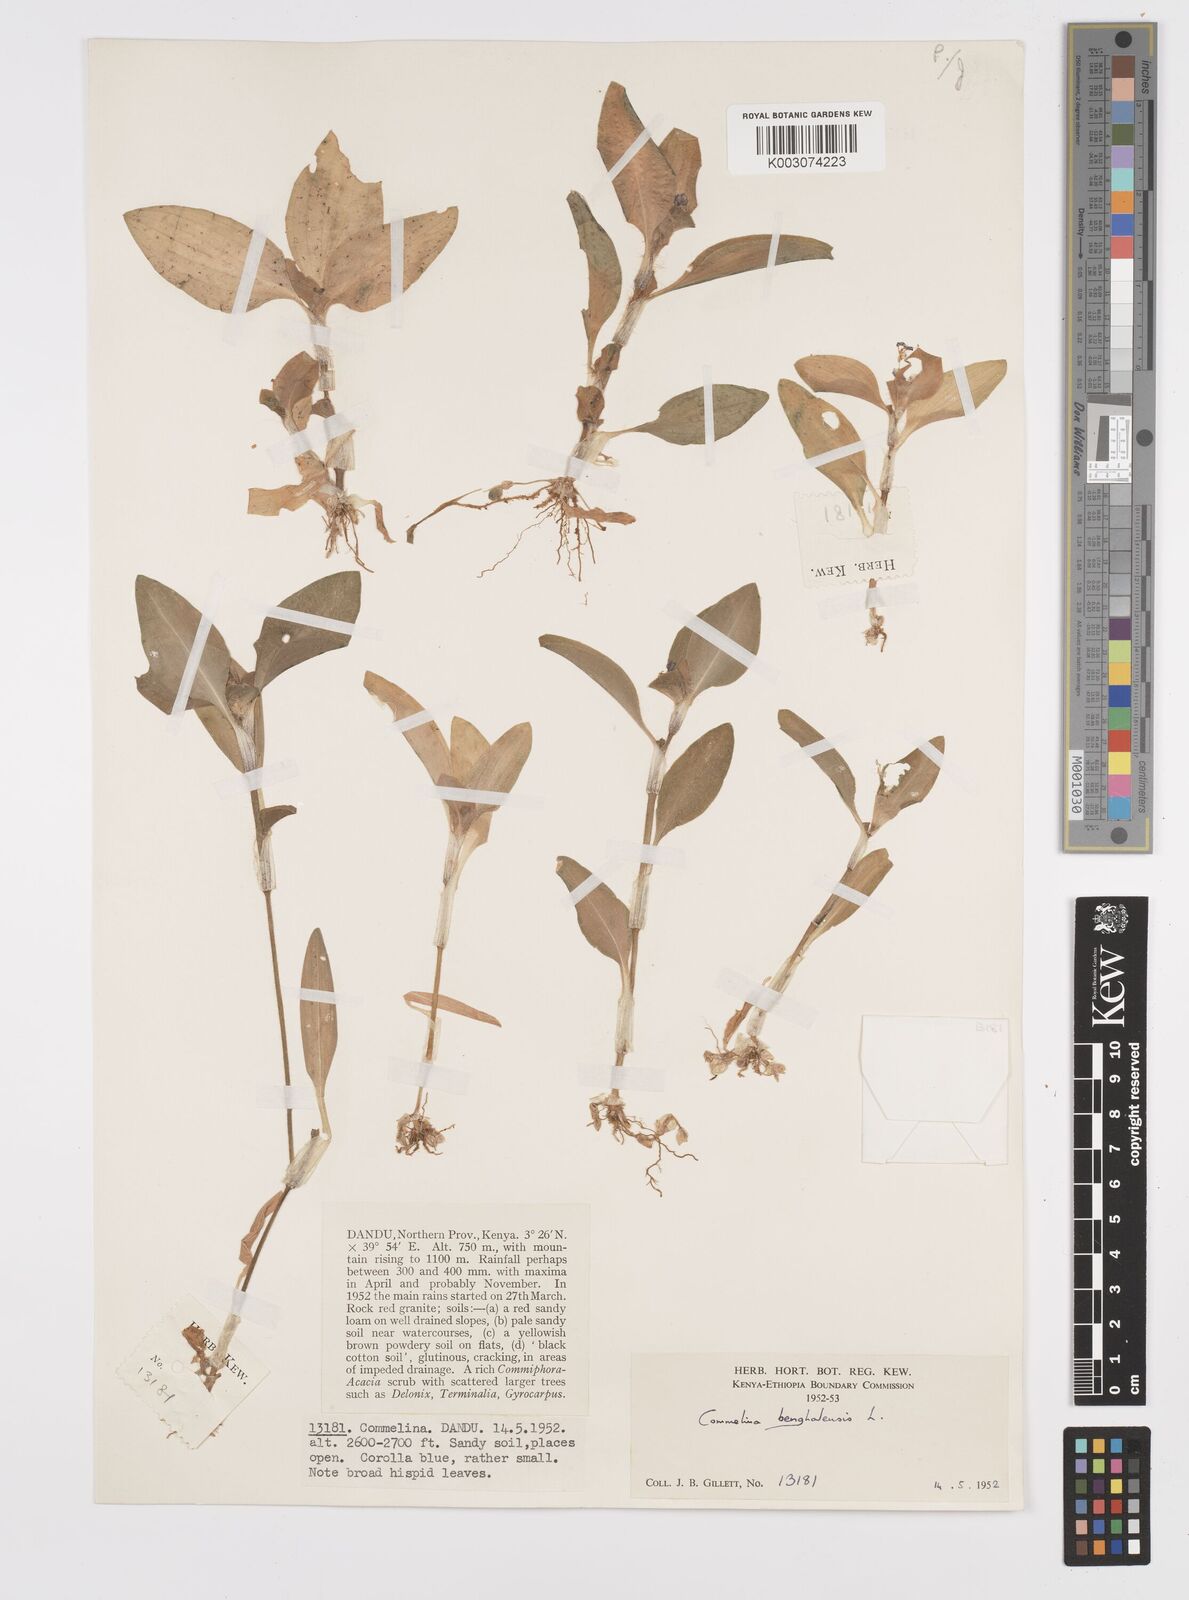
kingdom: Plantae
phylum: Tracheophyta
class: Liliopsida
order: Commelinales
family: Commelinaceae
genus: Commelina
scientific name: Commelina benghalensis
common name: Jio
